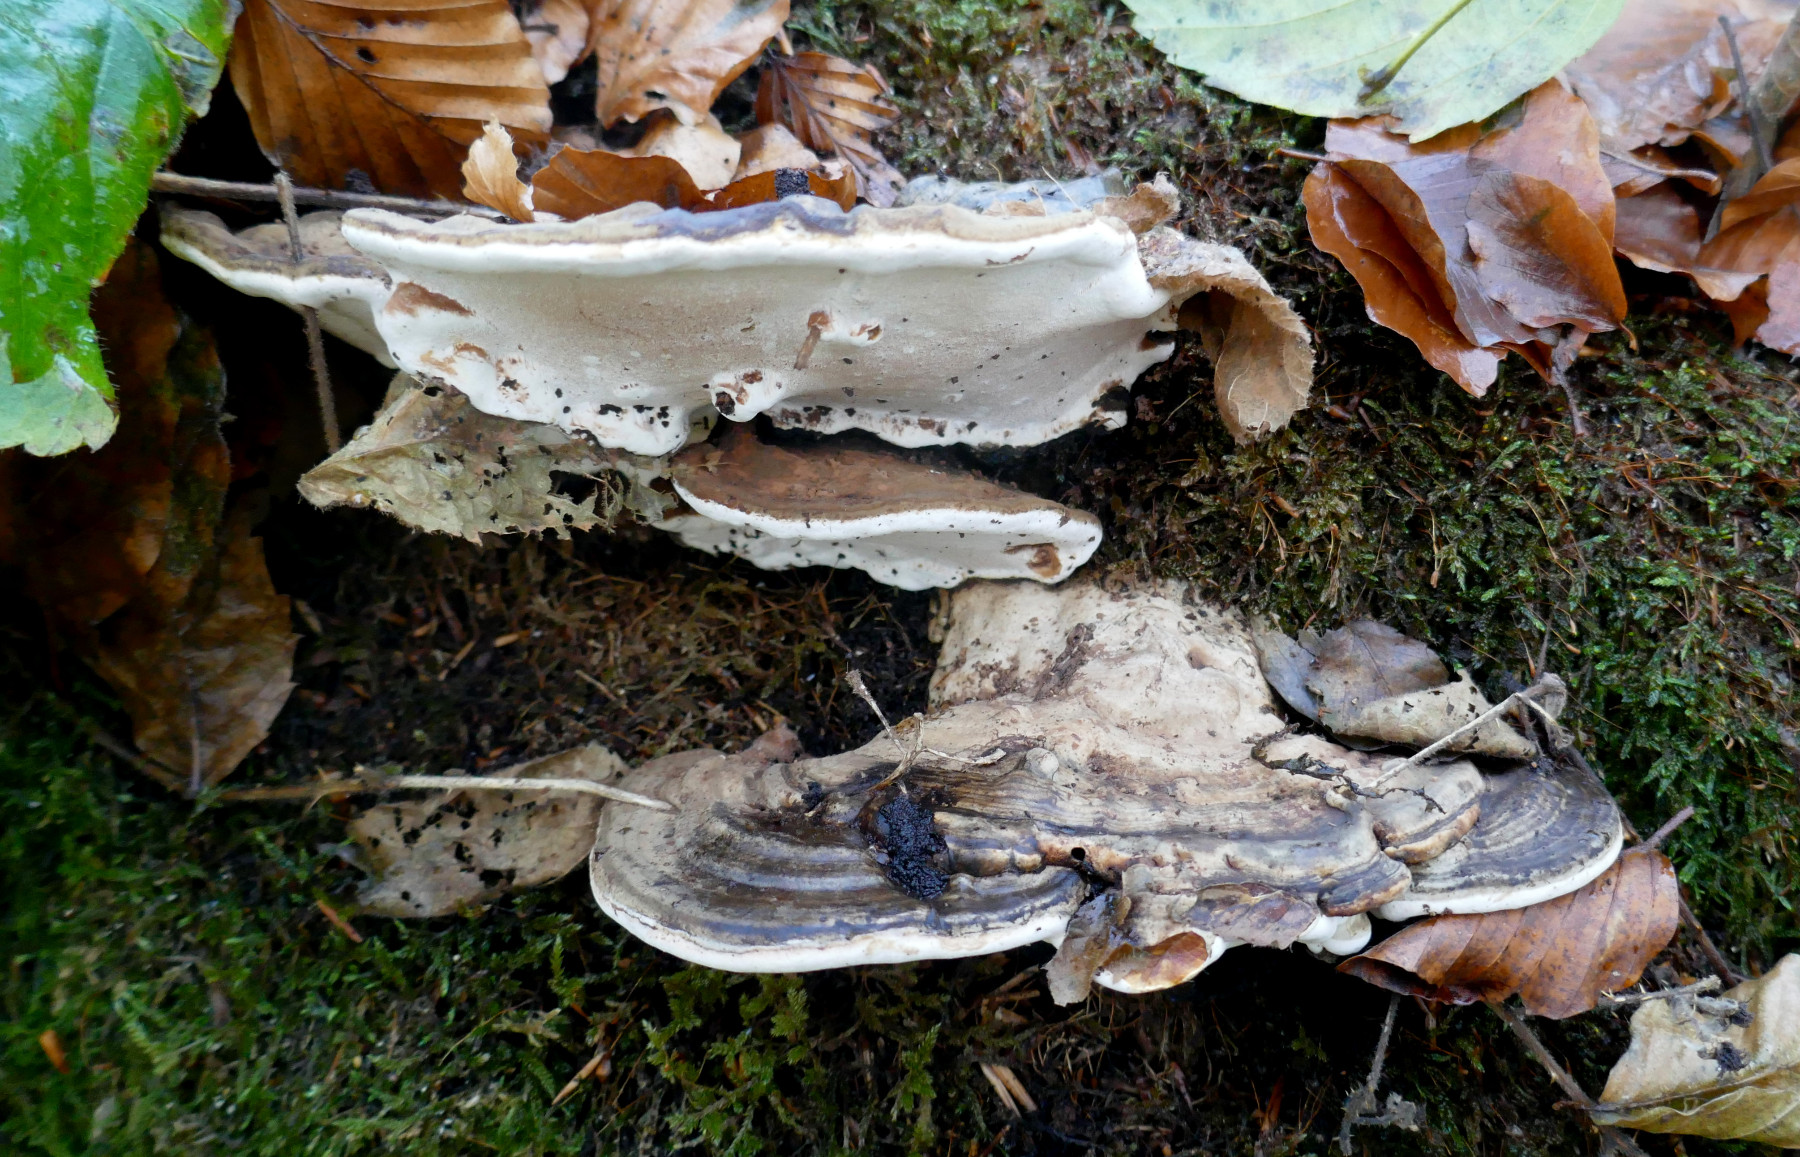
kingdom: Fungi
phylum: Basidiomycota
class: Agaricomycetes
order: Polyporales
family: Polyporaceae
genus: Ganoderma
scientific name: Ganoderma applanatum
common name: flad lakporesvamp
